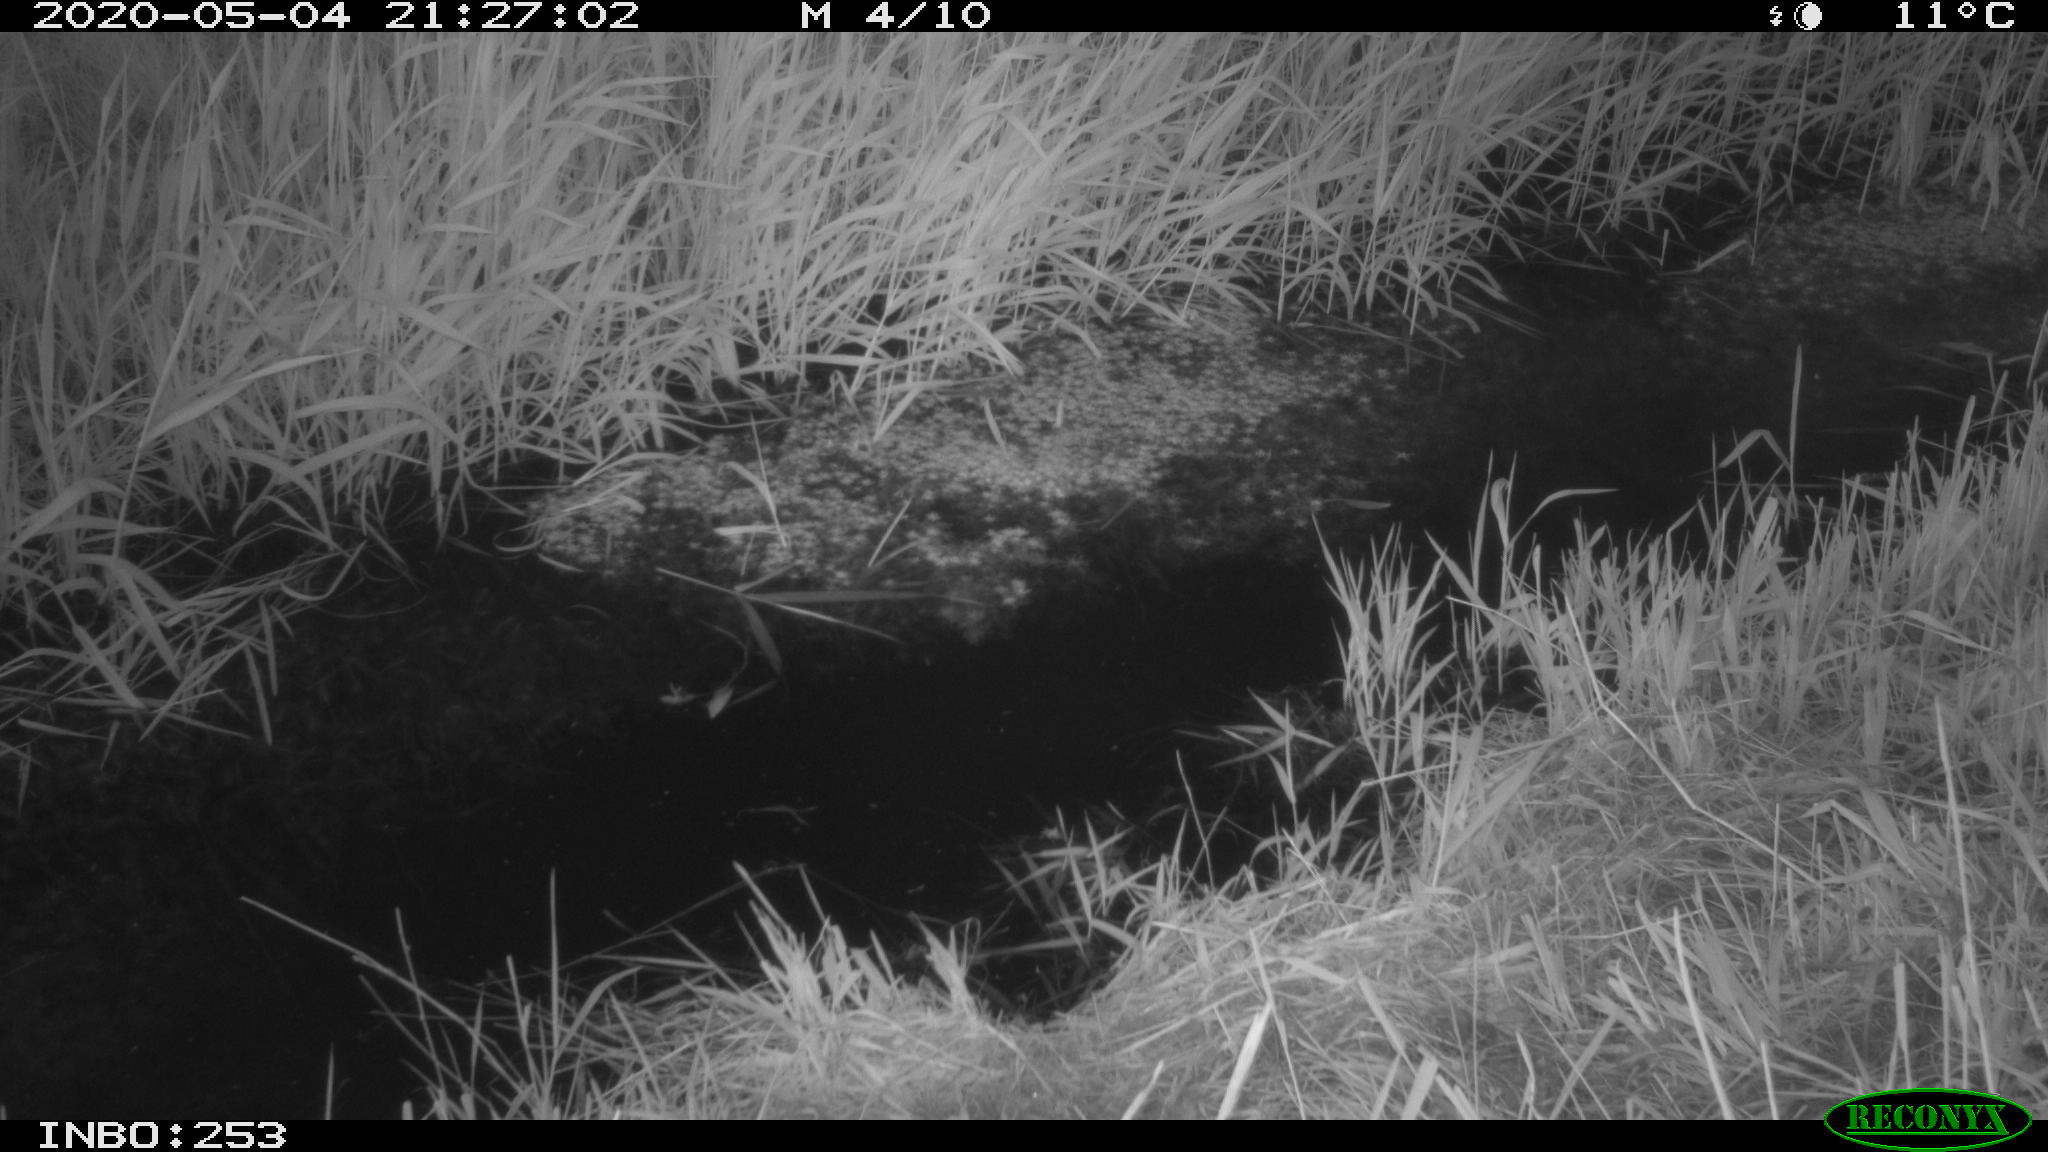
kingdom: Animalia
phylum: Chordata
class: Aves
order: Anseriformes
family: Anatidae
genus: Anas
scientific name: Anas platyrhynchos
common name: Mallard
